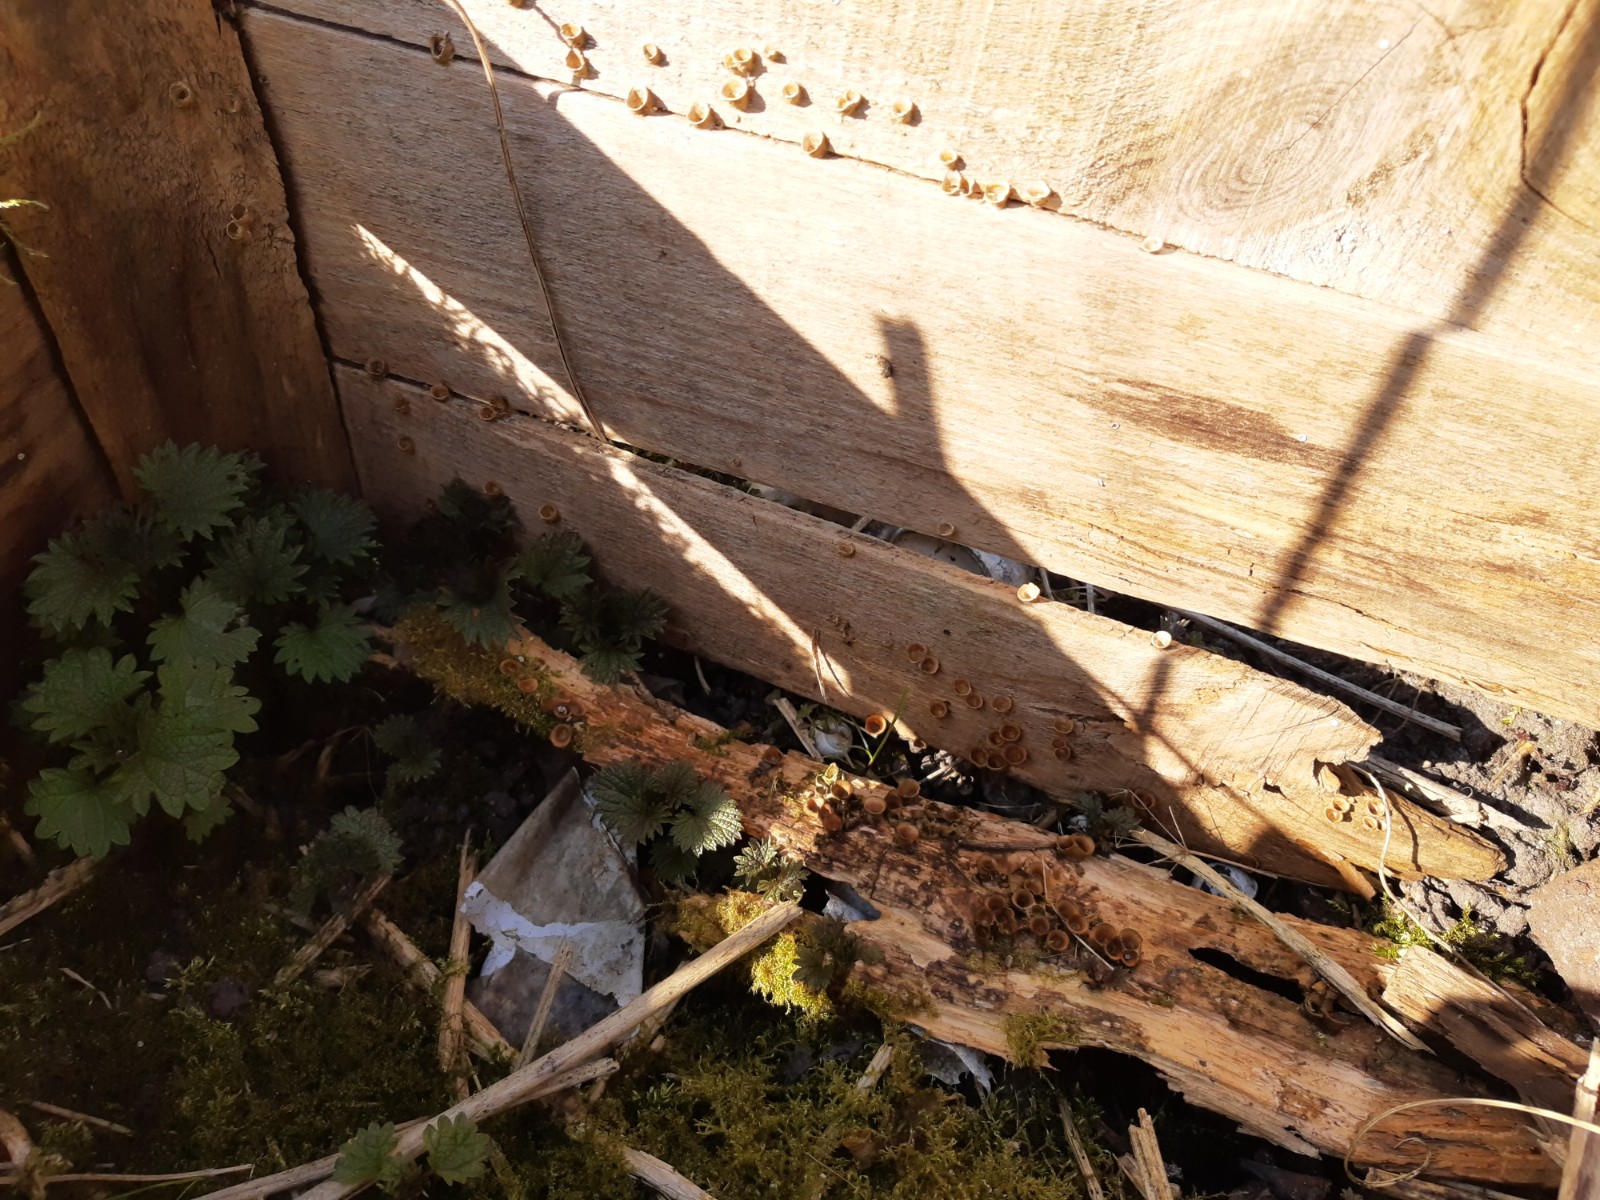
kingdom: Fungi
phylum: Basidiomycota
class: Agaricomycetes
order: Agaricales
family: Nidulariaceae
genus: Crucibulum
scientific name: Crucibulum crucibuliforme
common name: krukkesvamp
